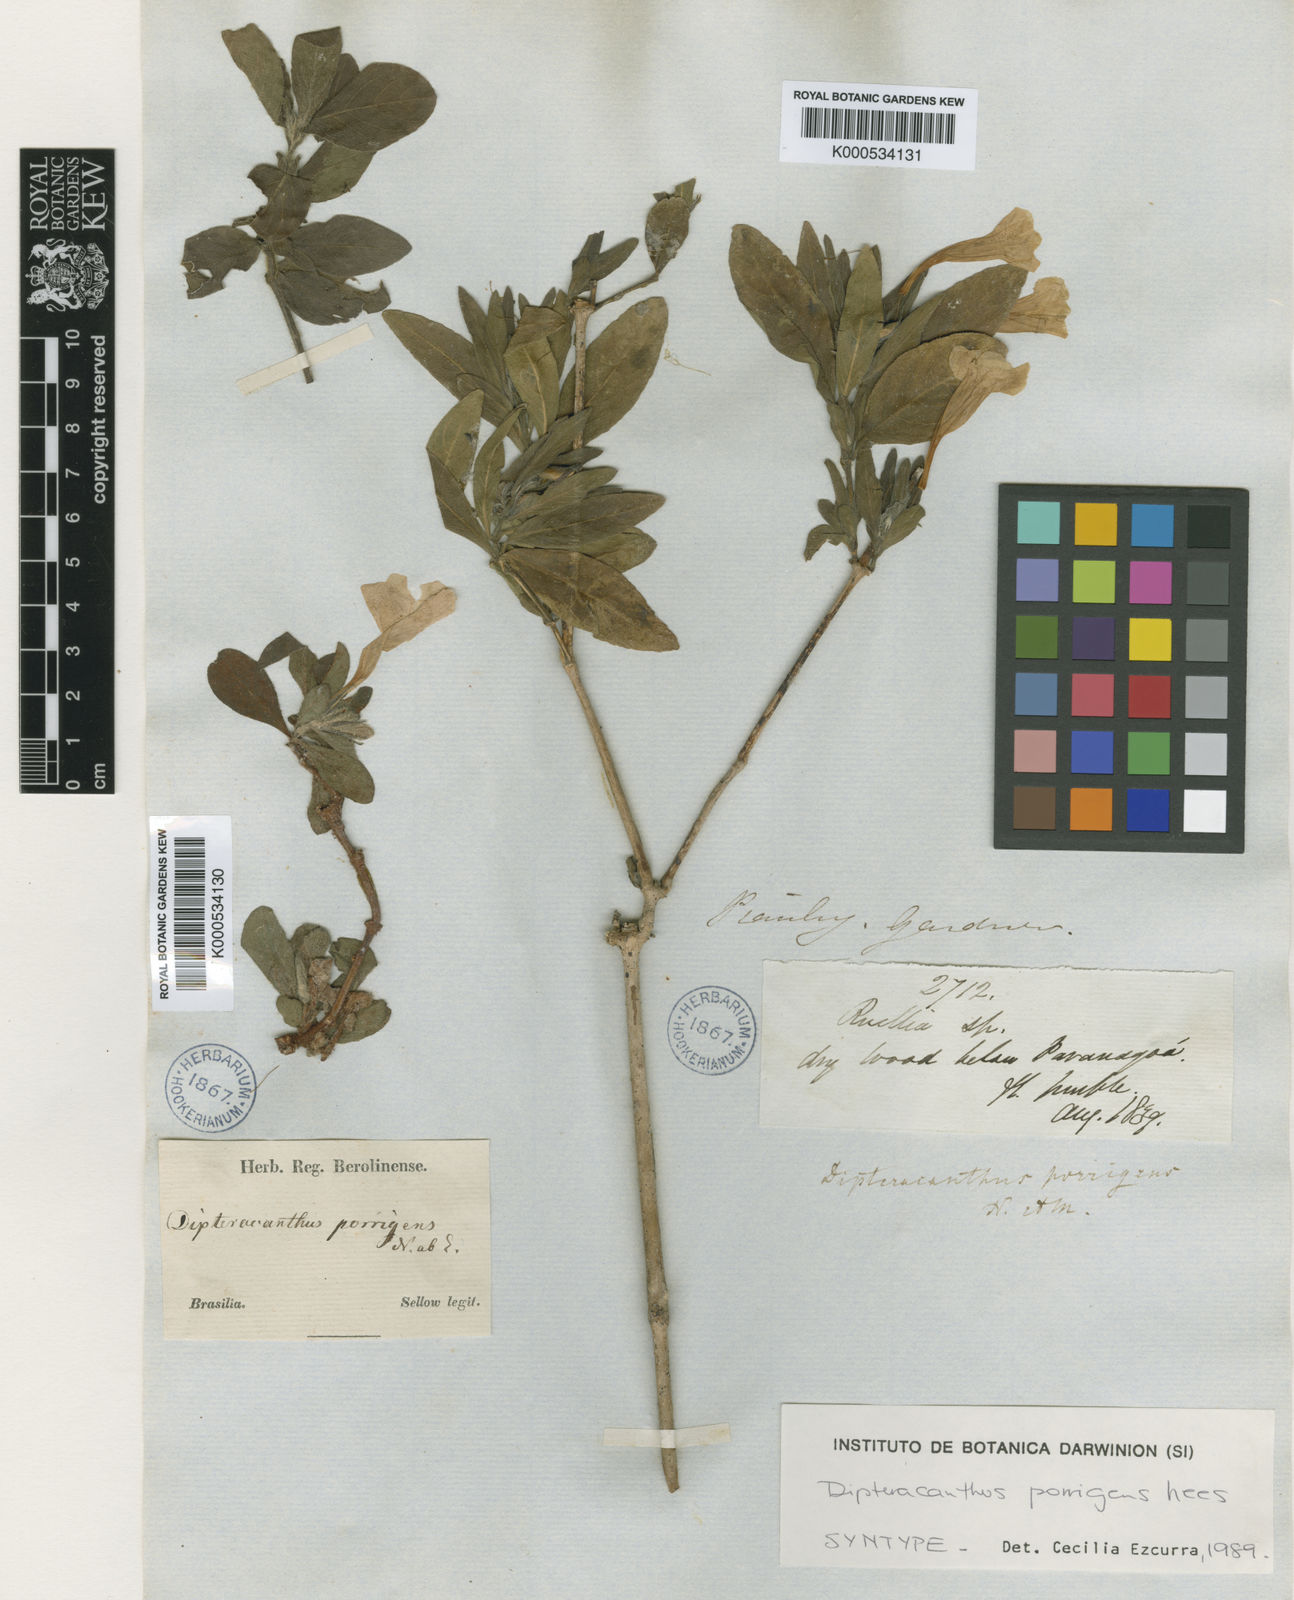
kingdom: Plantae
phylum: Tracheophyta
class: Magnoliopsida
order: Lamiales
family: Acanthaceae
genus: Ruellia
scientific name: Ruellia geminiflora
